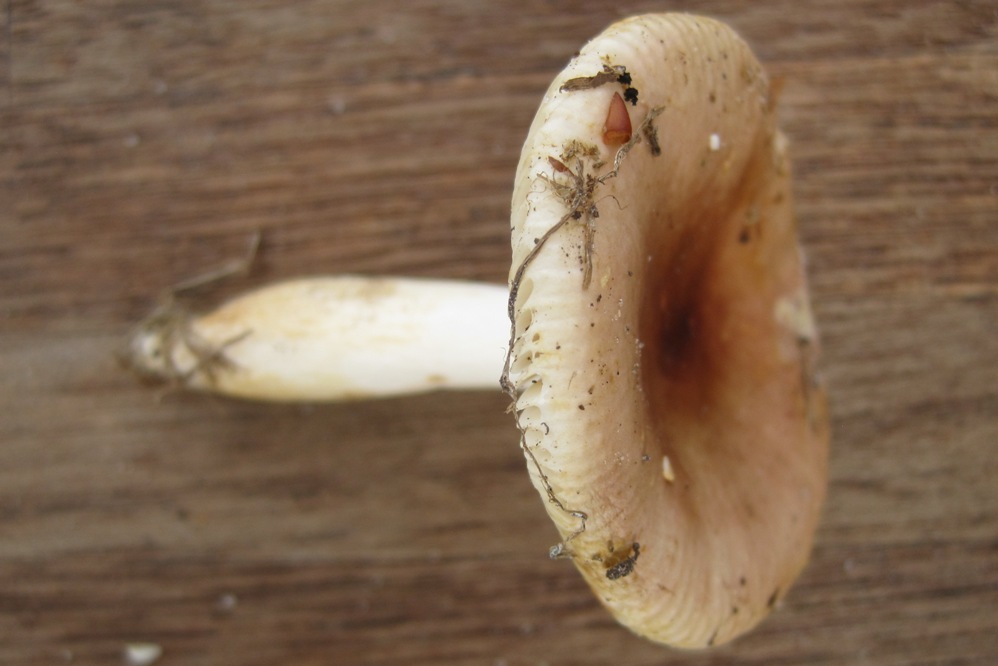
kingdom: Fungi
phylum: Basidiomycota
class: Agaricomycetes
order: Russulales
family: Russulaceae
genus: Russula
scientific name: Russula puellaris
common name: gulstokket skørhat
